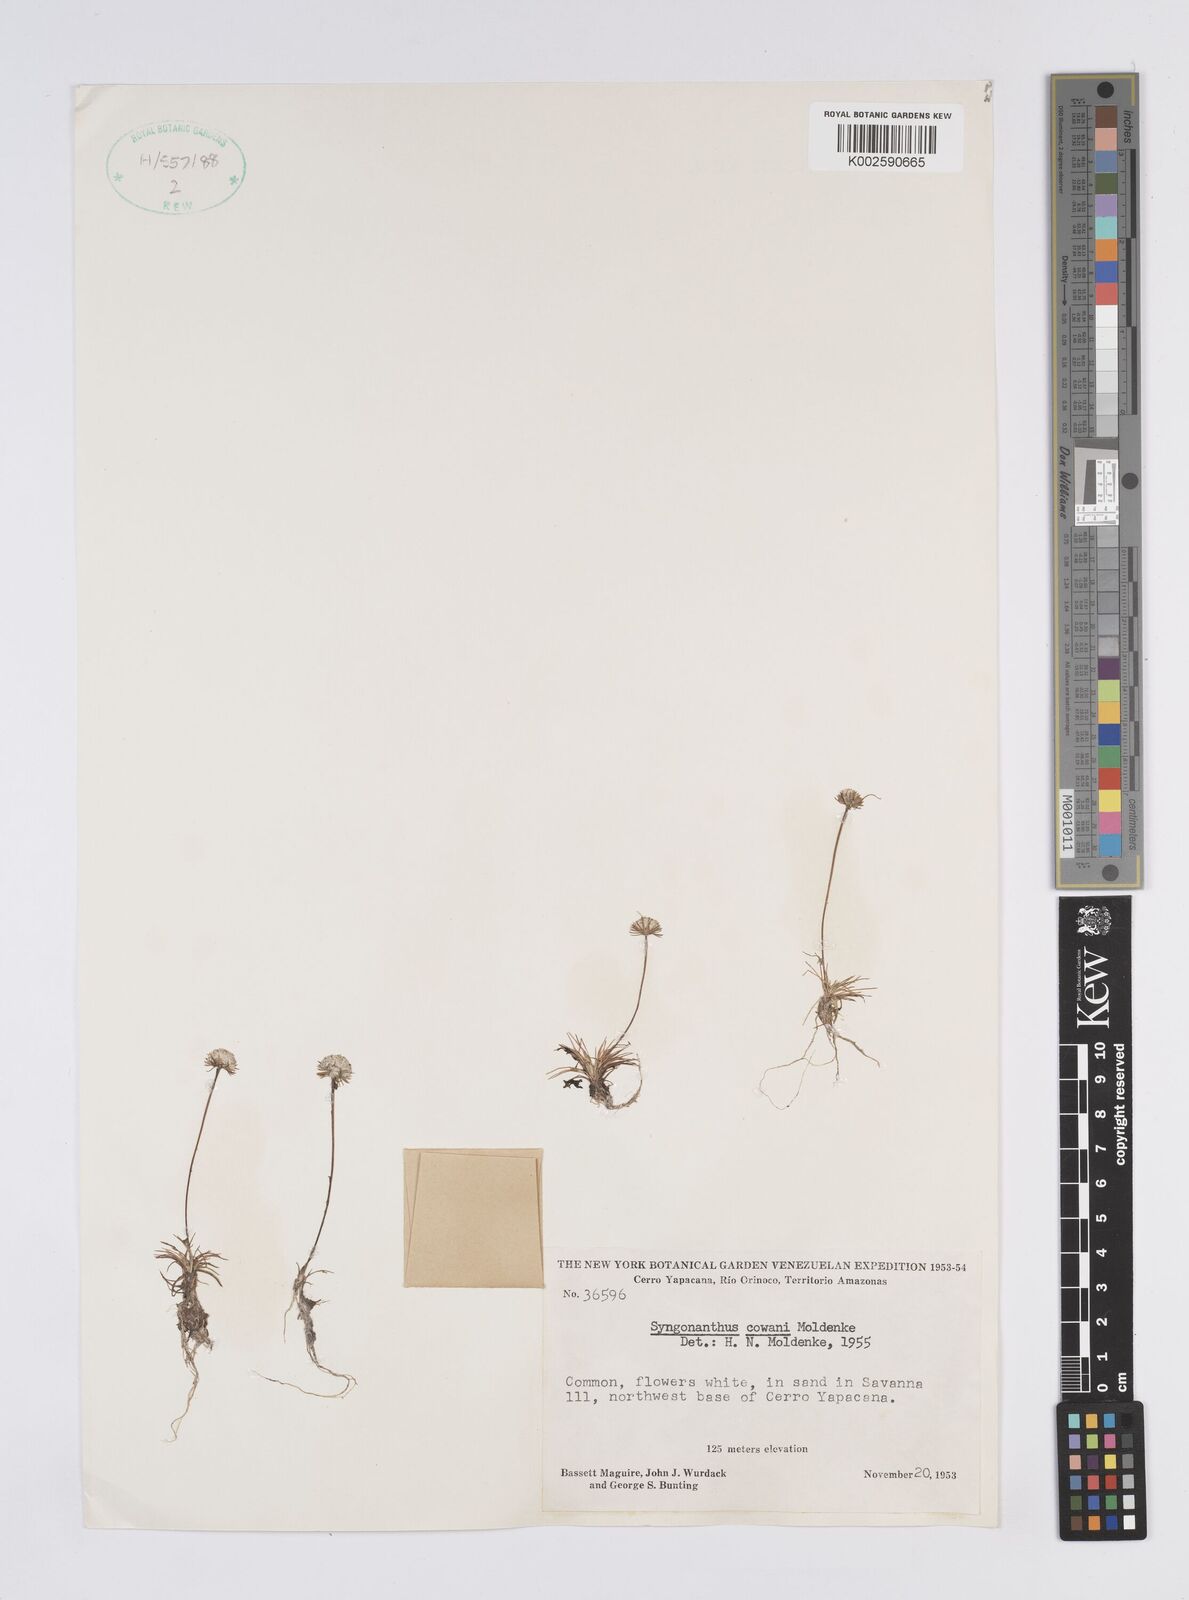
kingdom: Plantae
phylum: Tracheophyta
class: Liliopsida
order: Poales
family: Eriocaulaceae
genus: Syngonanthus
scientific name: Syngonanthus cowanii
